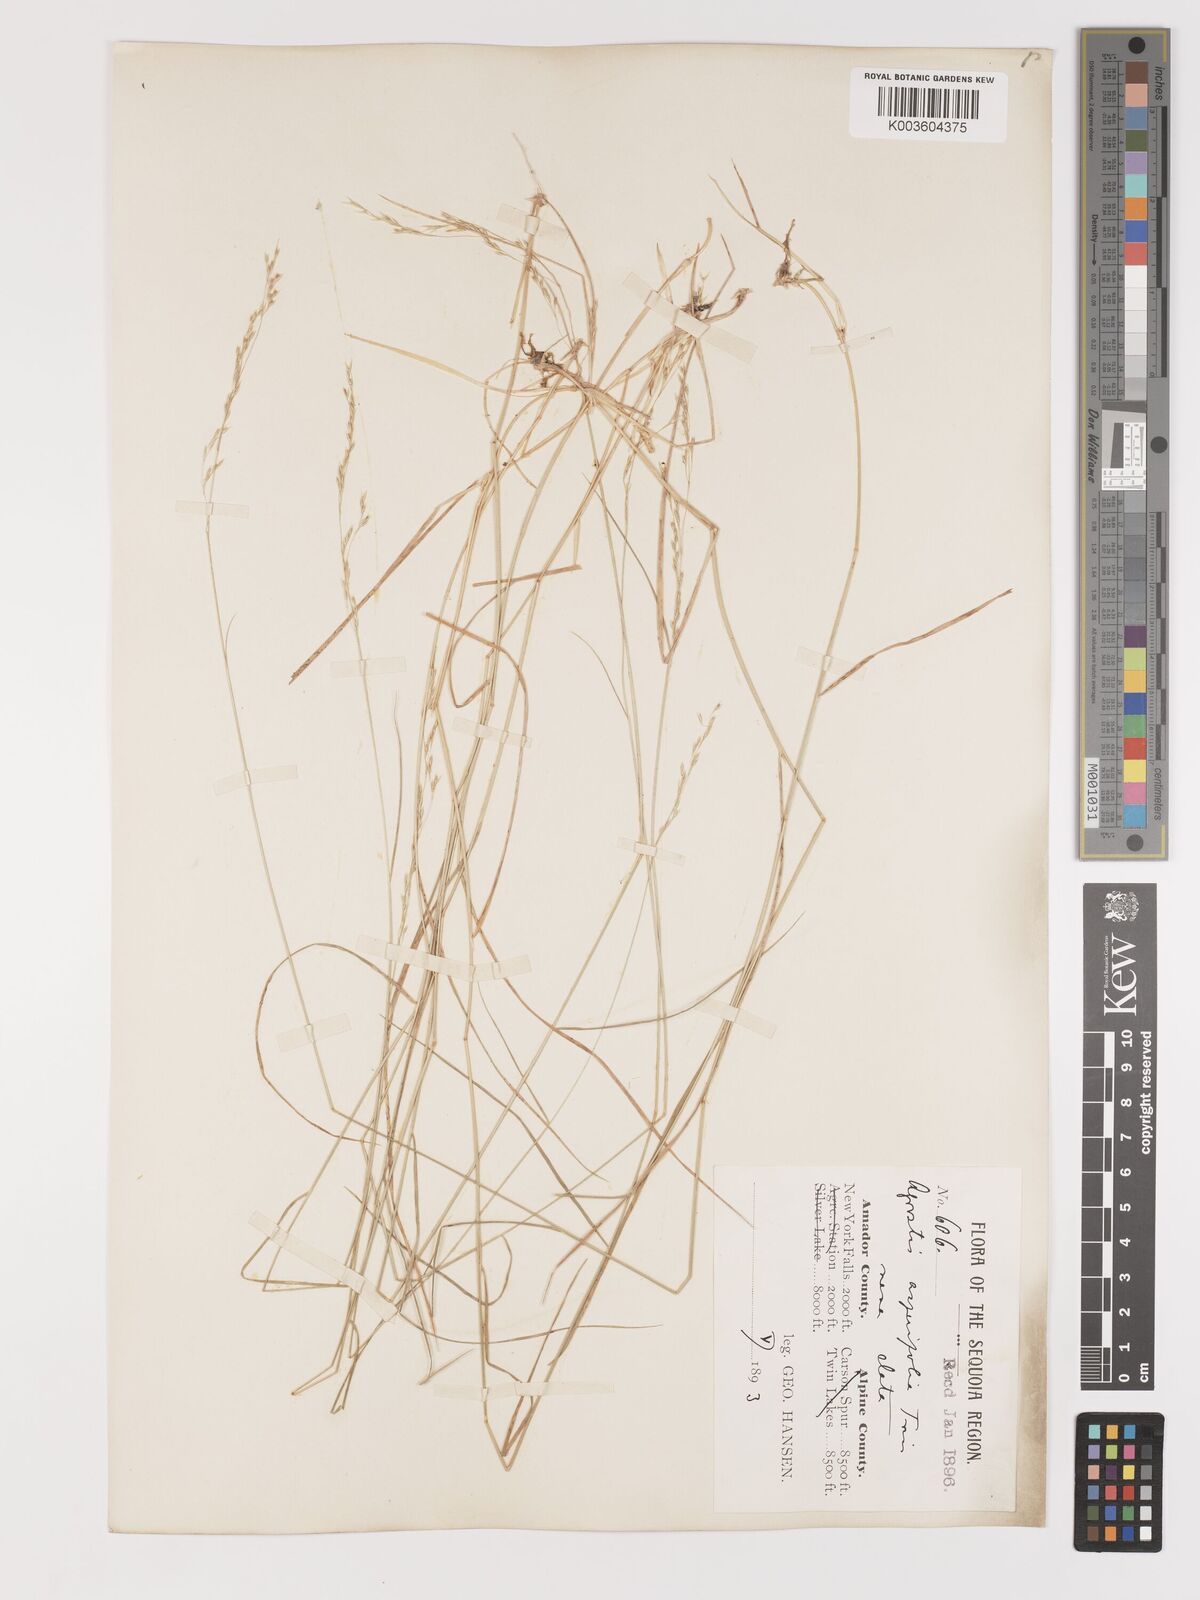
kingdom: Plantae
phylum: Tracheophyta
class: Liliopsida
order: Poales
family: Poaceae
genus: Agrostis
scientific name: Agrostis exarata
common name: Spike bent
